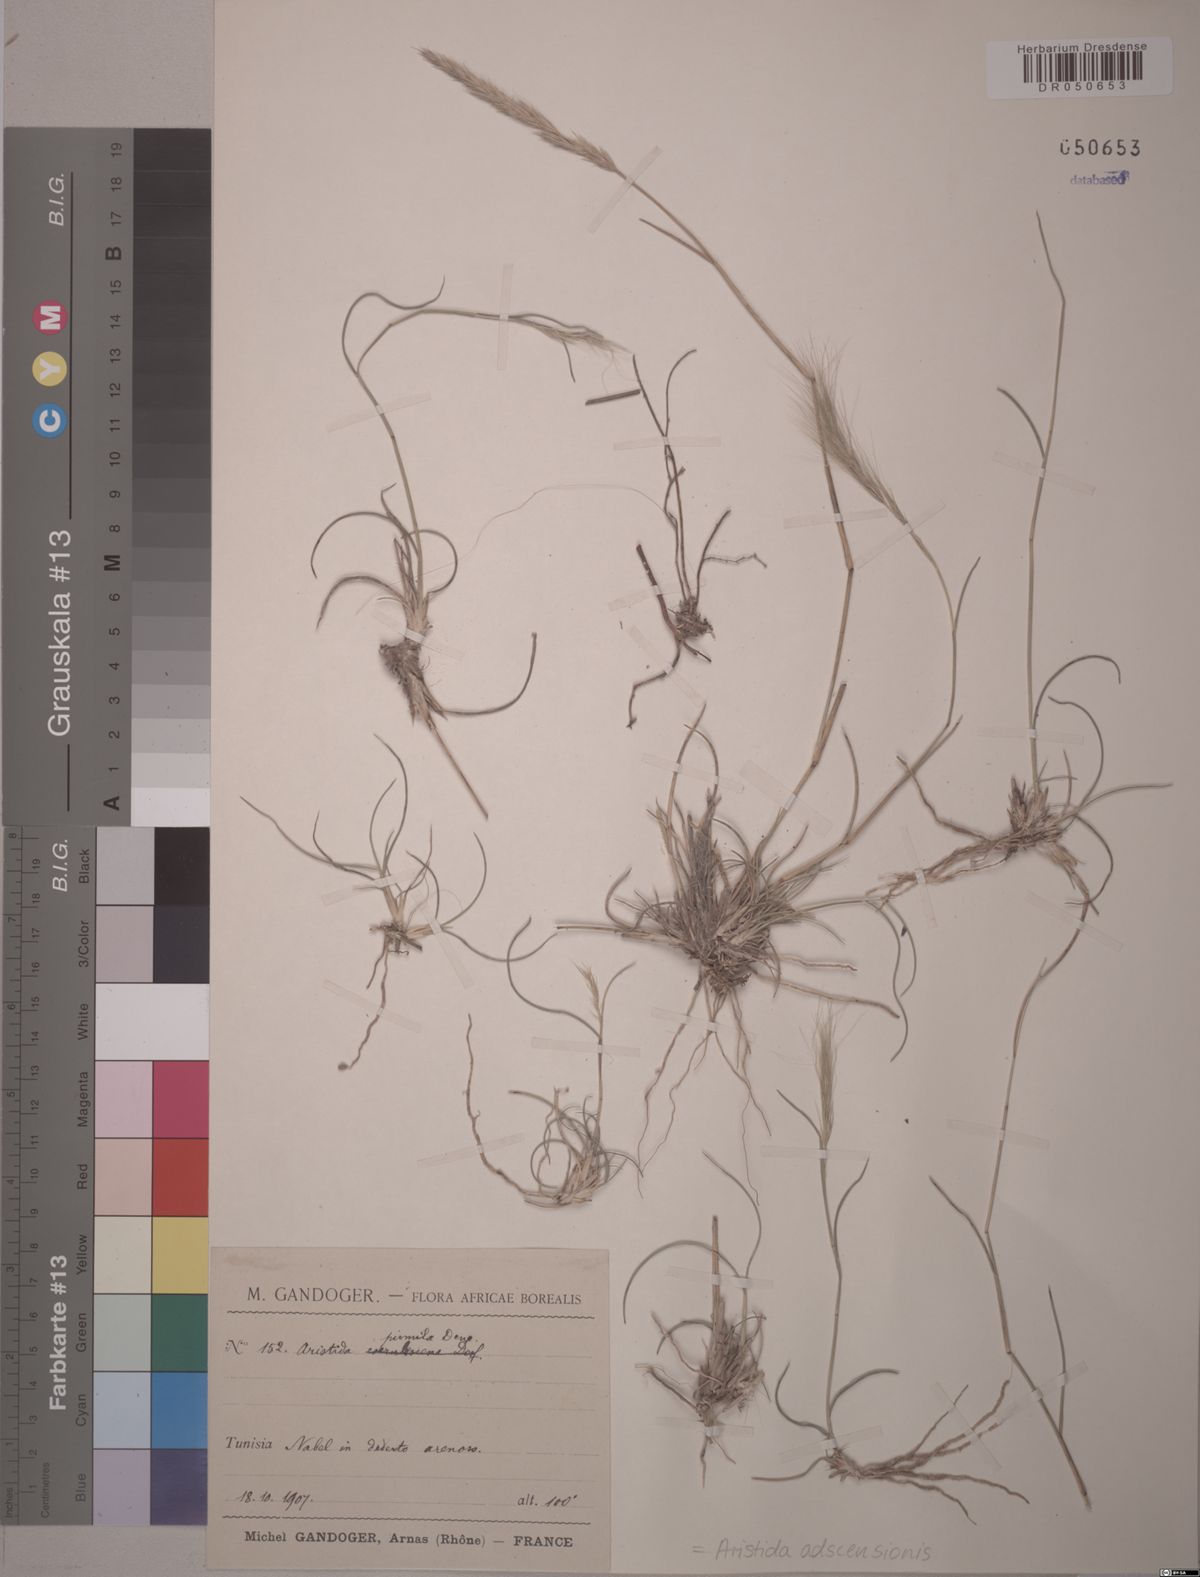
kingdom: Plantae
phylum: Tracheophyta
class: Liliopsida
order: Poales
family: Poaceae
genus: Aristida
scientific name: Aristida adscensionis
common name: Sixweeks threeawn
